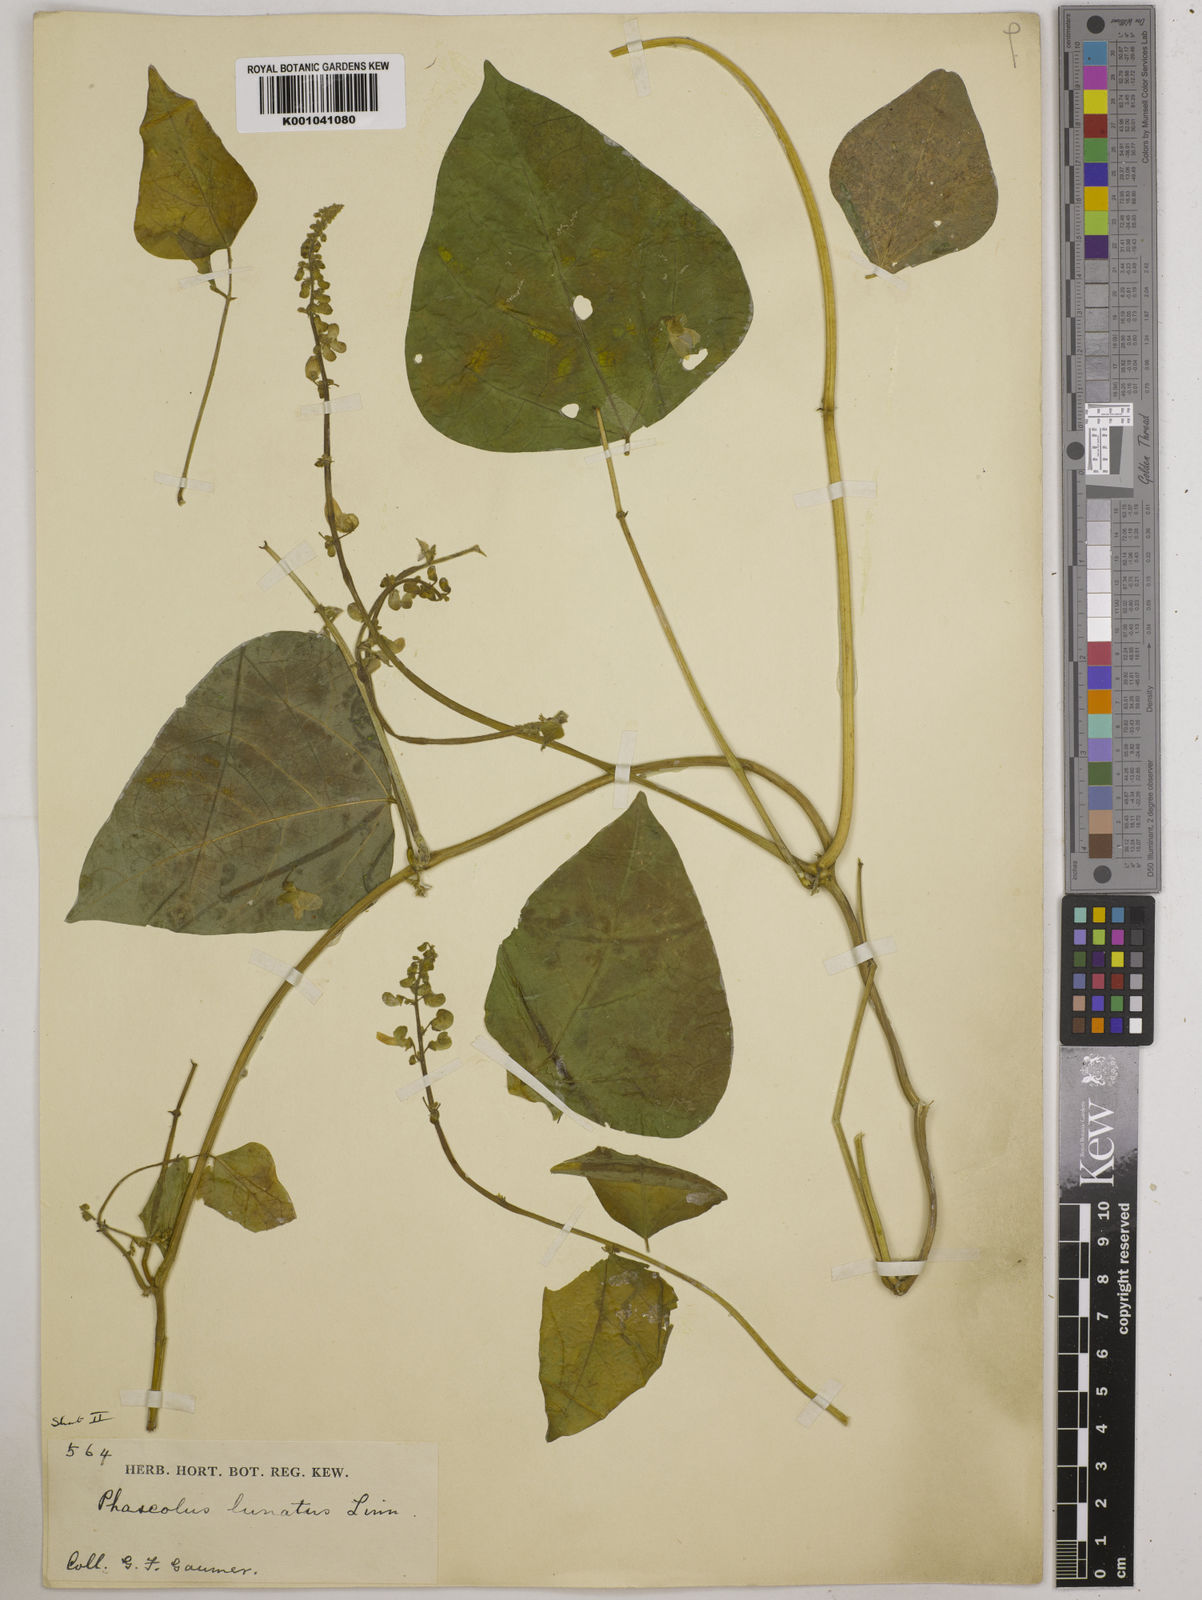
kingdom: Plantae
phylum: Tracheophyta
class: Magnoliopsida
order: Fabales
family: Fabaceae
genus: Phaseolus
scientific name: Phaseolus lunatus
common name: Sieva bean
